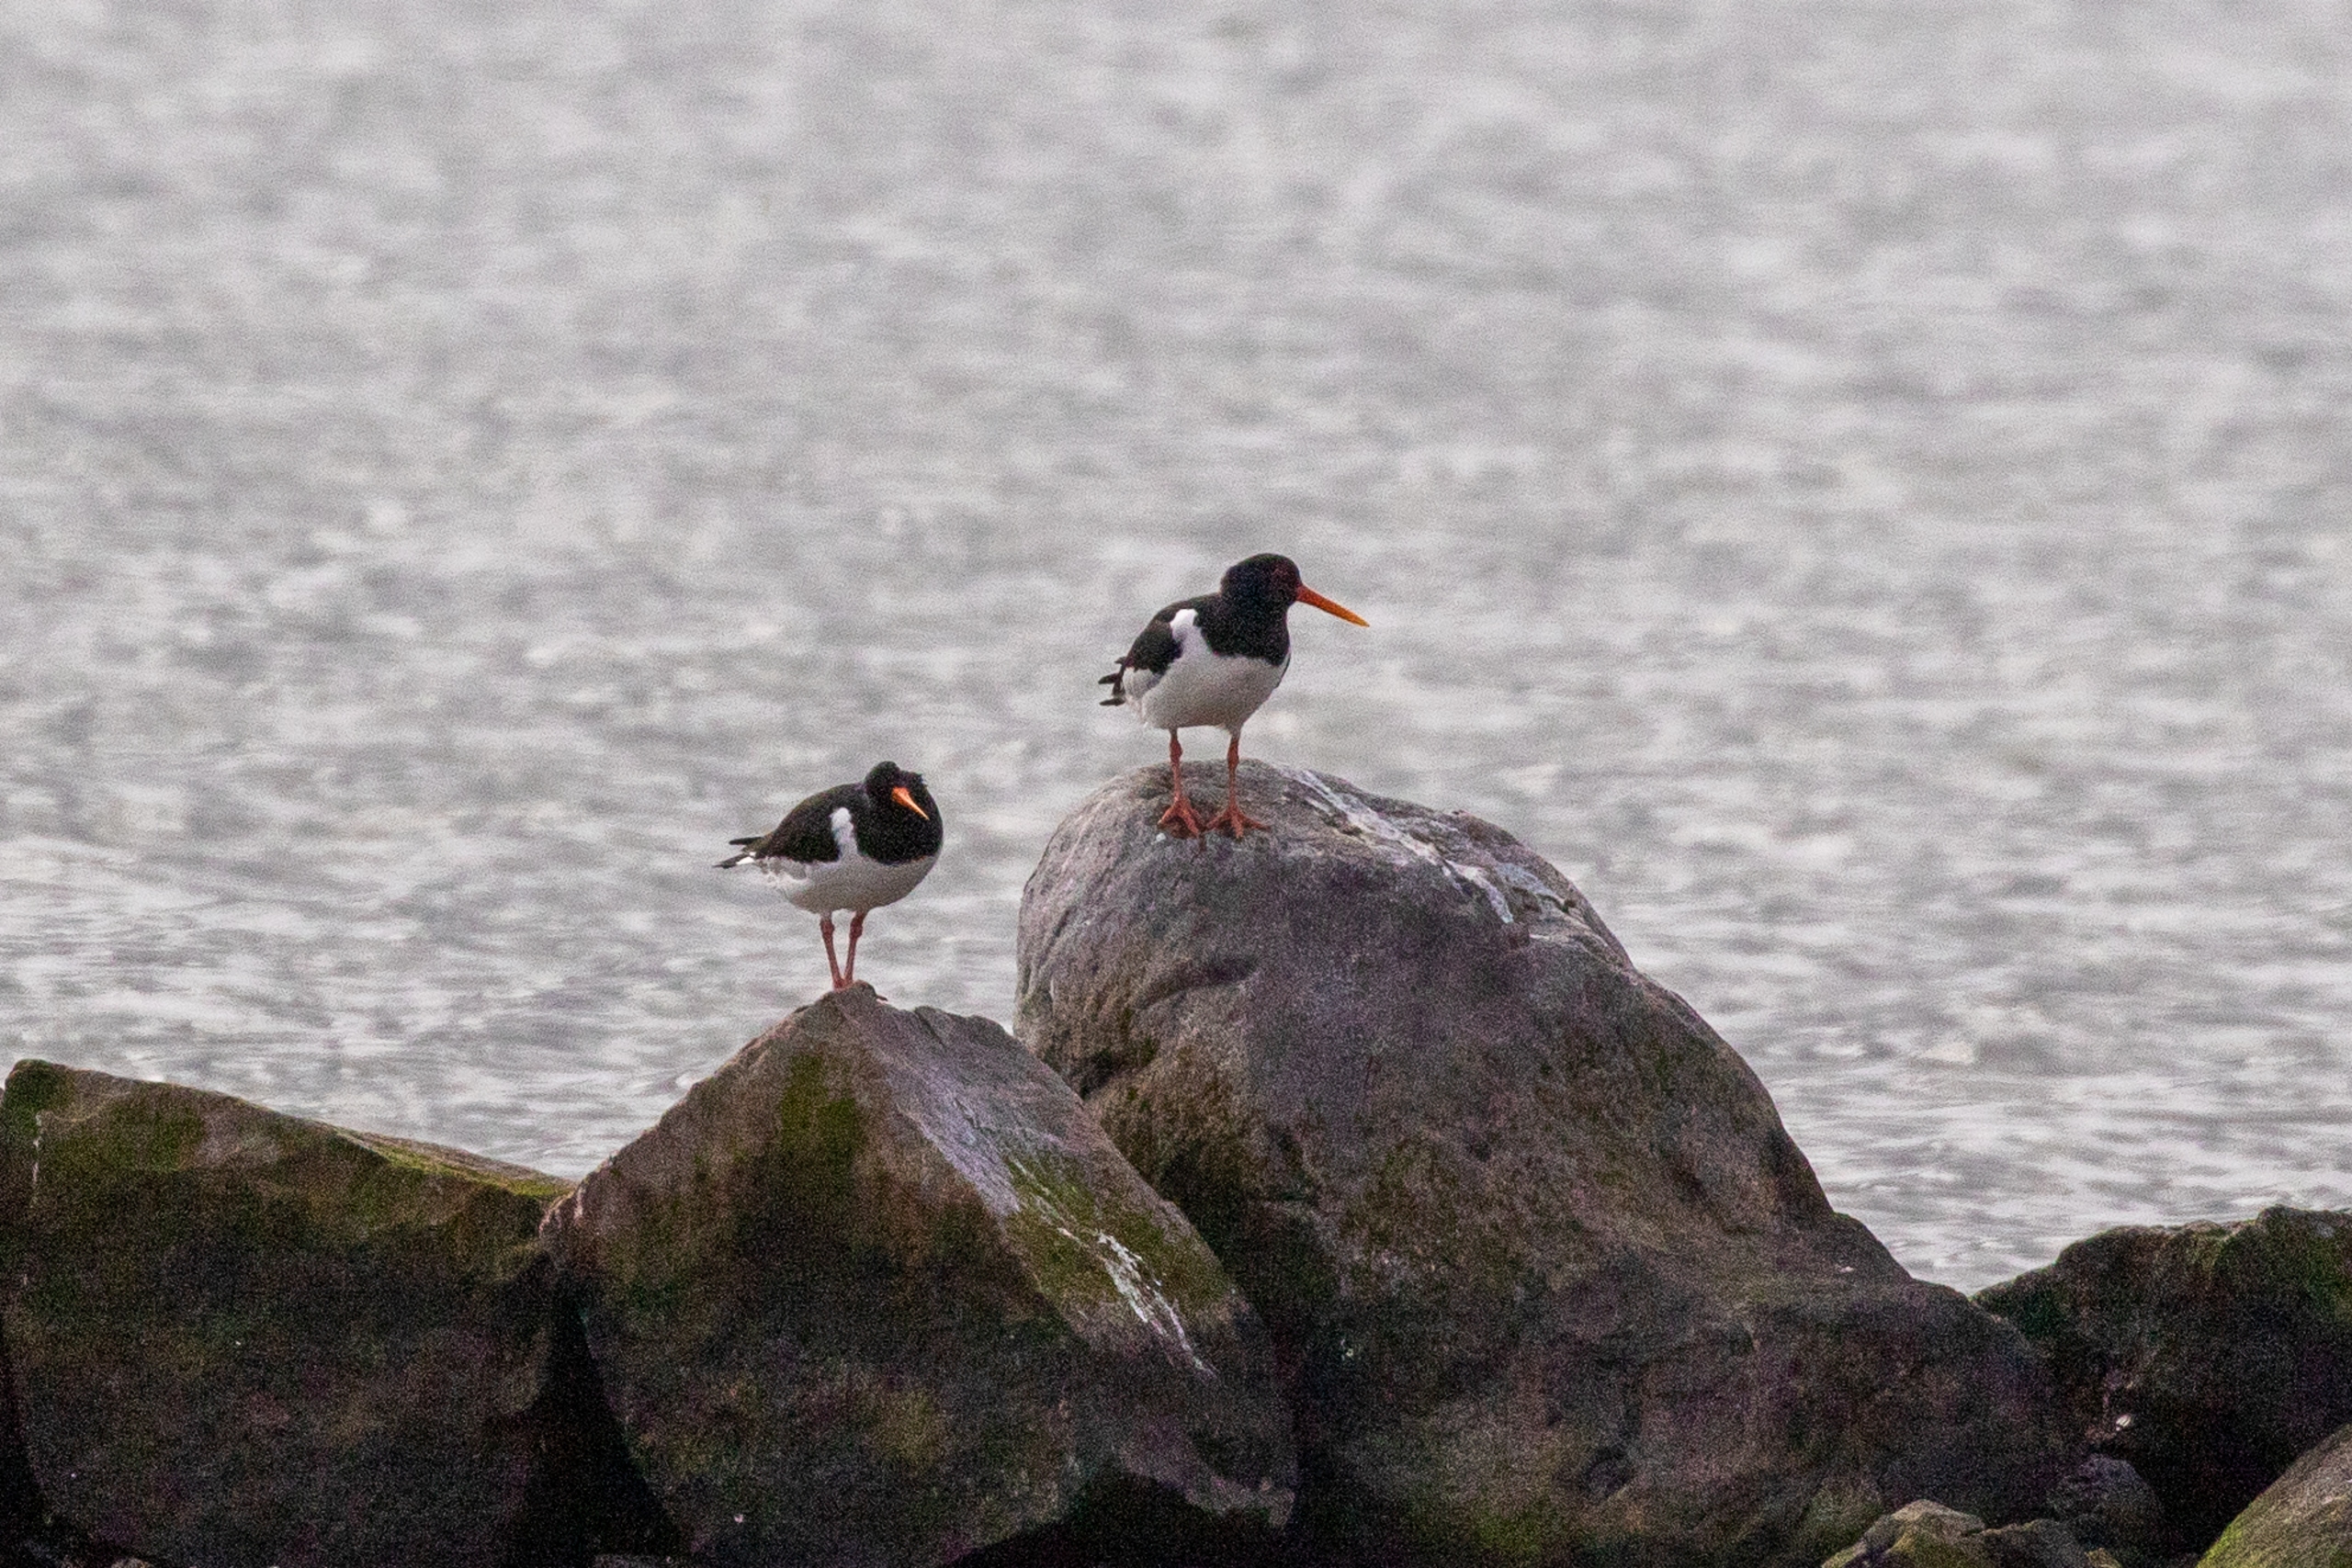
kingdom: Animalia
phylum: Chordata
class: Aves
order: Charadriiformes
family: Haematopodidae
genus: Haematopus
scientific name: Haematopus ostralegus
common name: Strandskade
